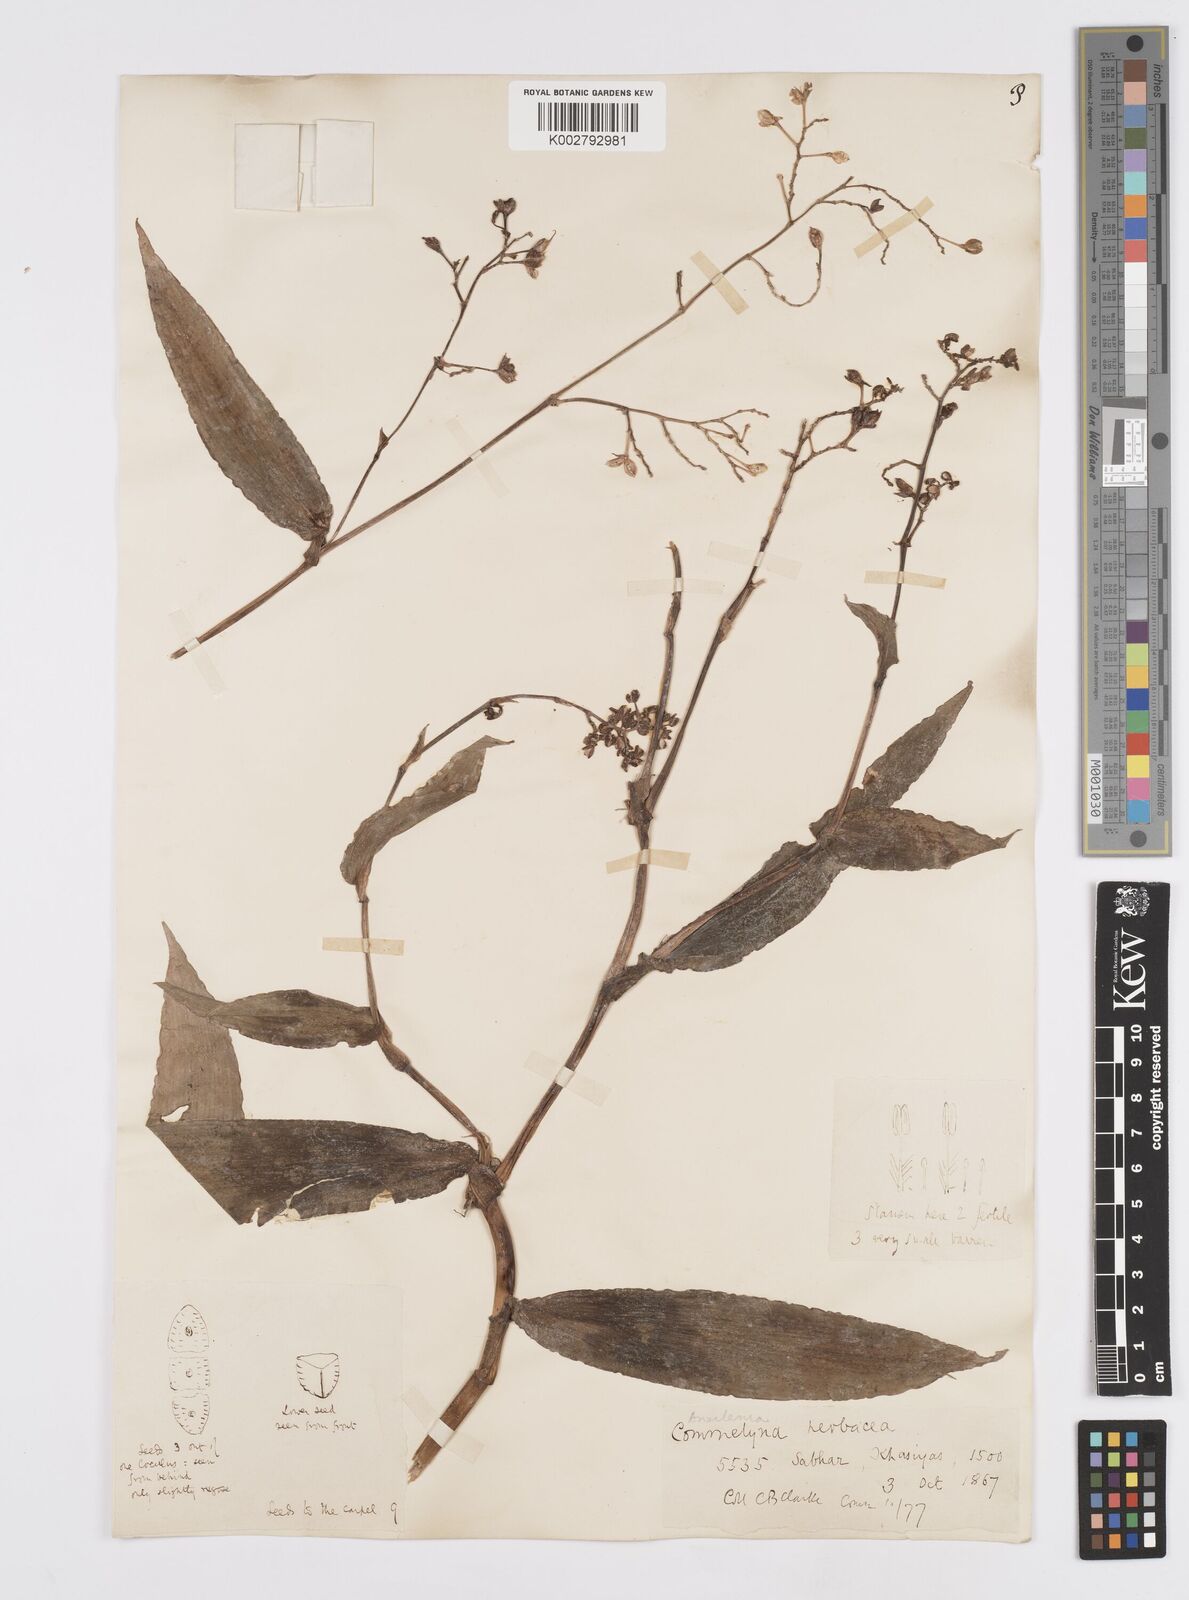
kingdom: Plantae
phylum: Tracheophyta
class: Liliopsida
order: Commelinales
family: Commelinaceae
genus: Murdannia
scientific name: Murdannia
